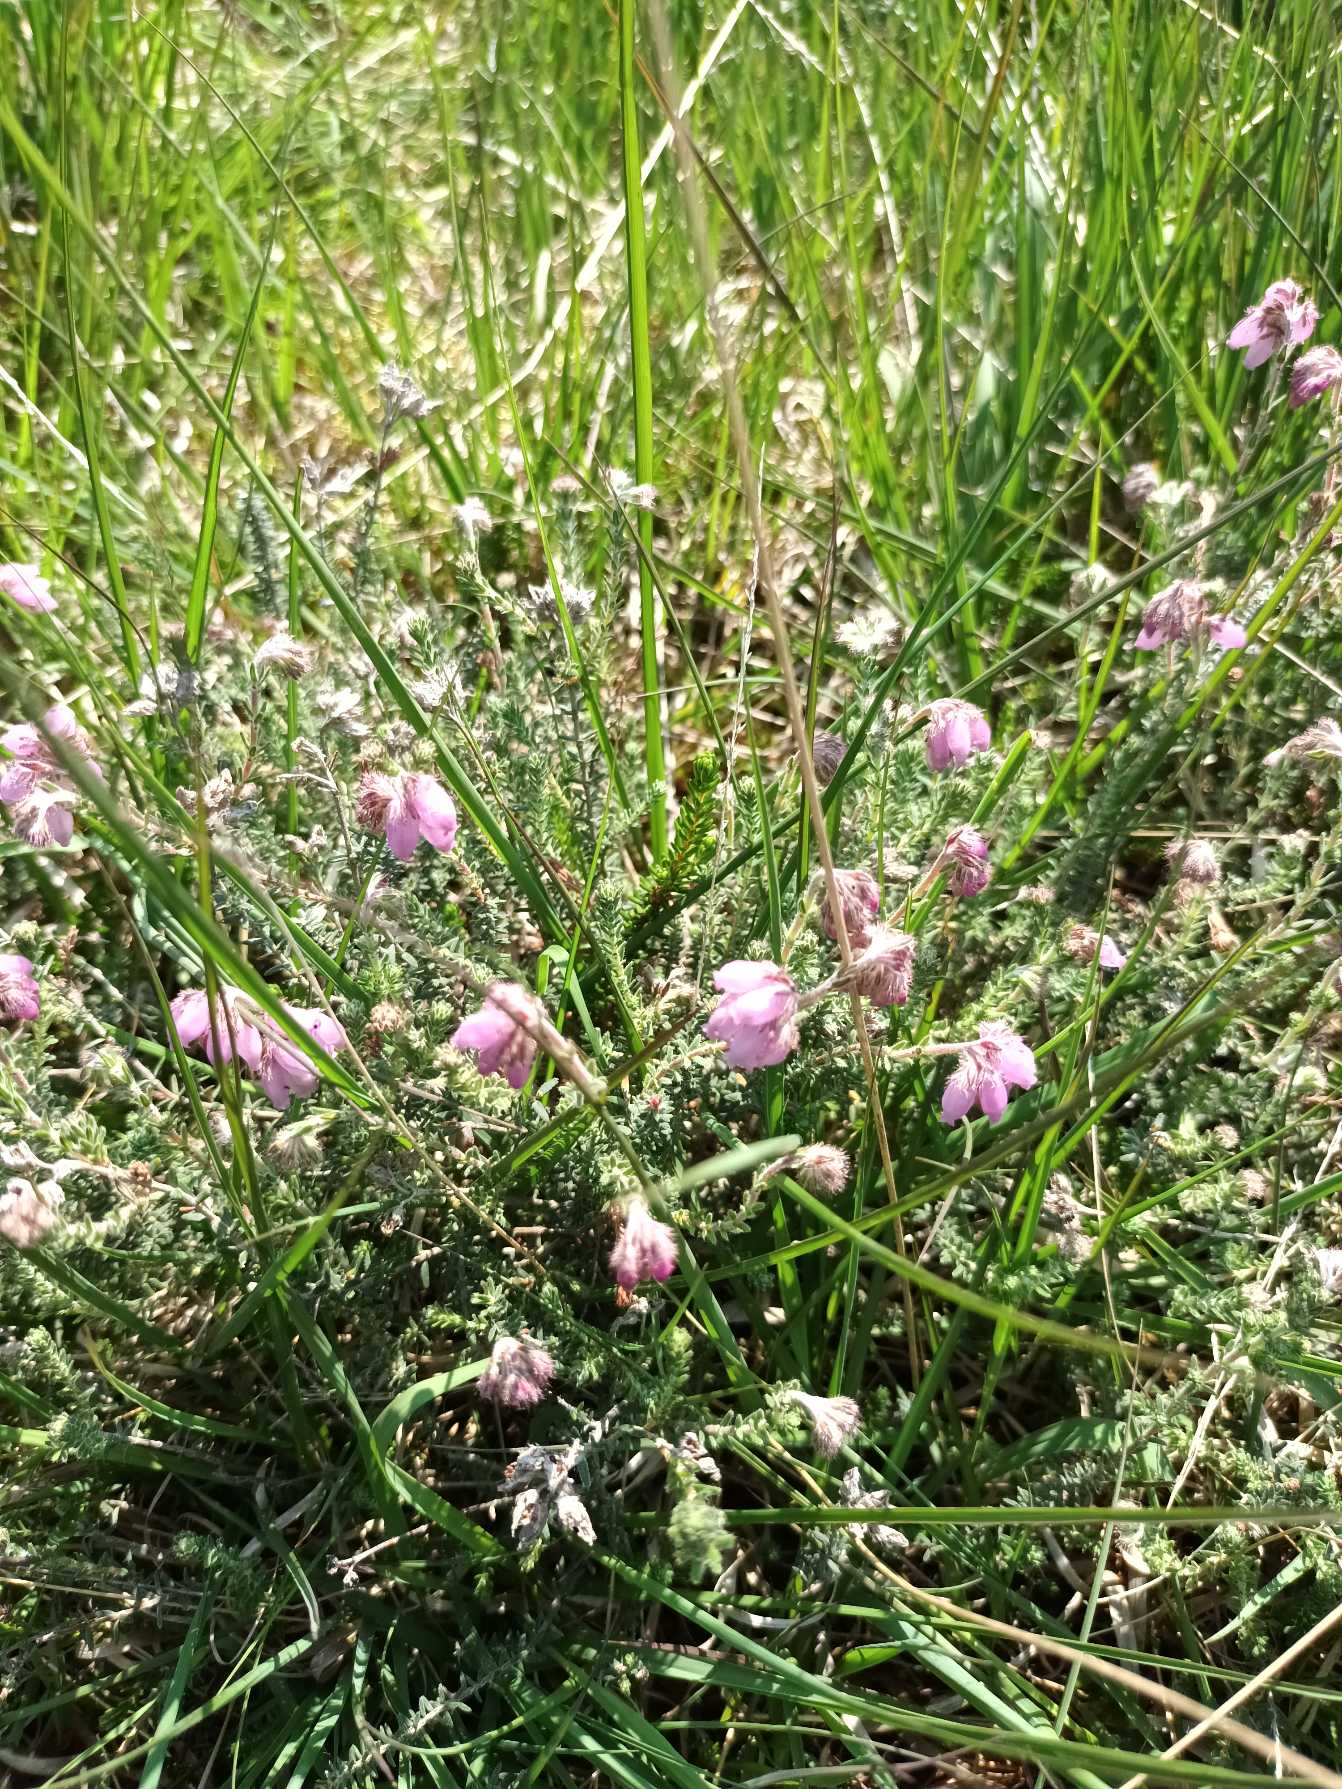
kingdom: Plantae
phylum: Tracheophyta
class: Magnoliopsida
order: Ericales
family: Ericaceae
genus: Erica
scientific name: Erica tetralix
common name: Klokkelyng
